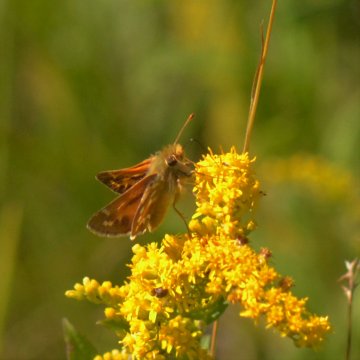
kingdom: Animalia
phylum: Arthropoda
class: Insecta
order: Lepidoptera
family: Hesperiidae
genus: Hesperia
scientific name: Hesperia comma
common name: Common Branded Skipper
